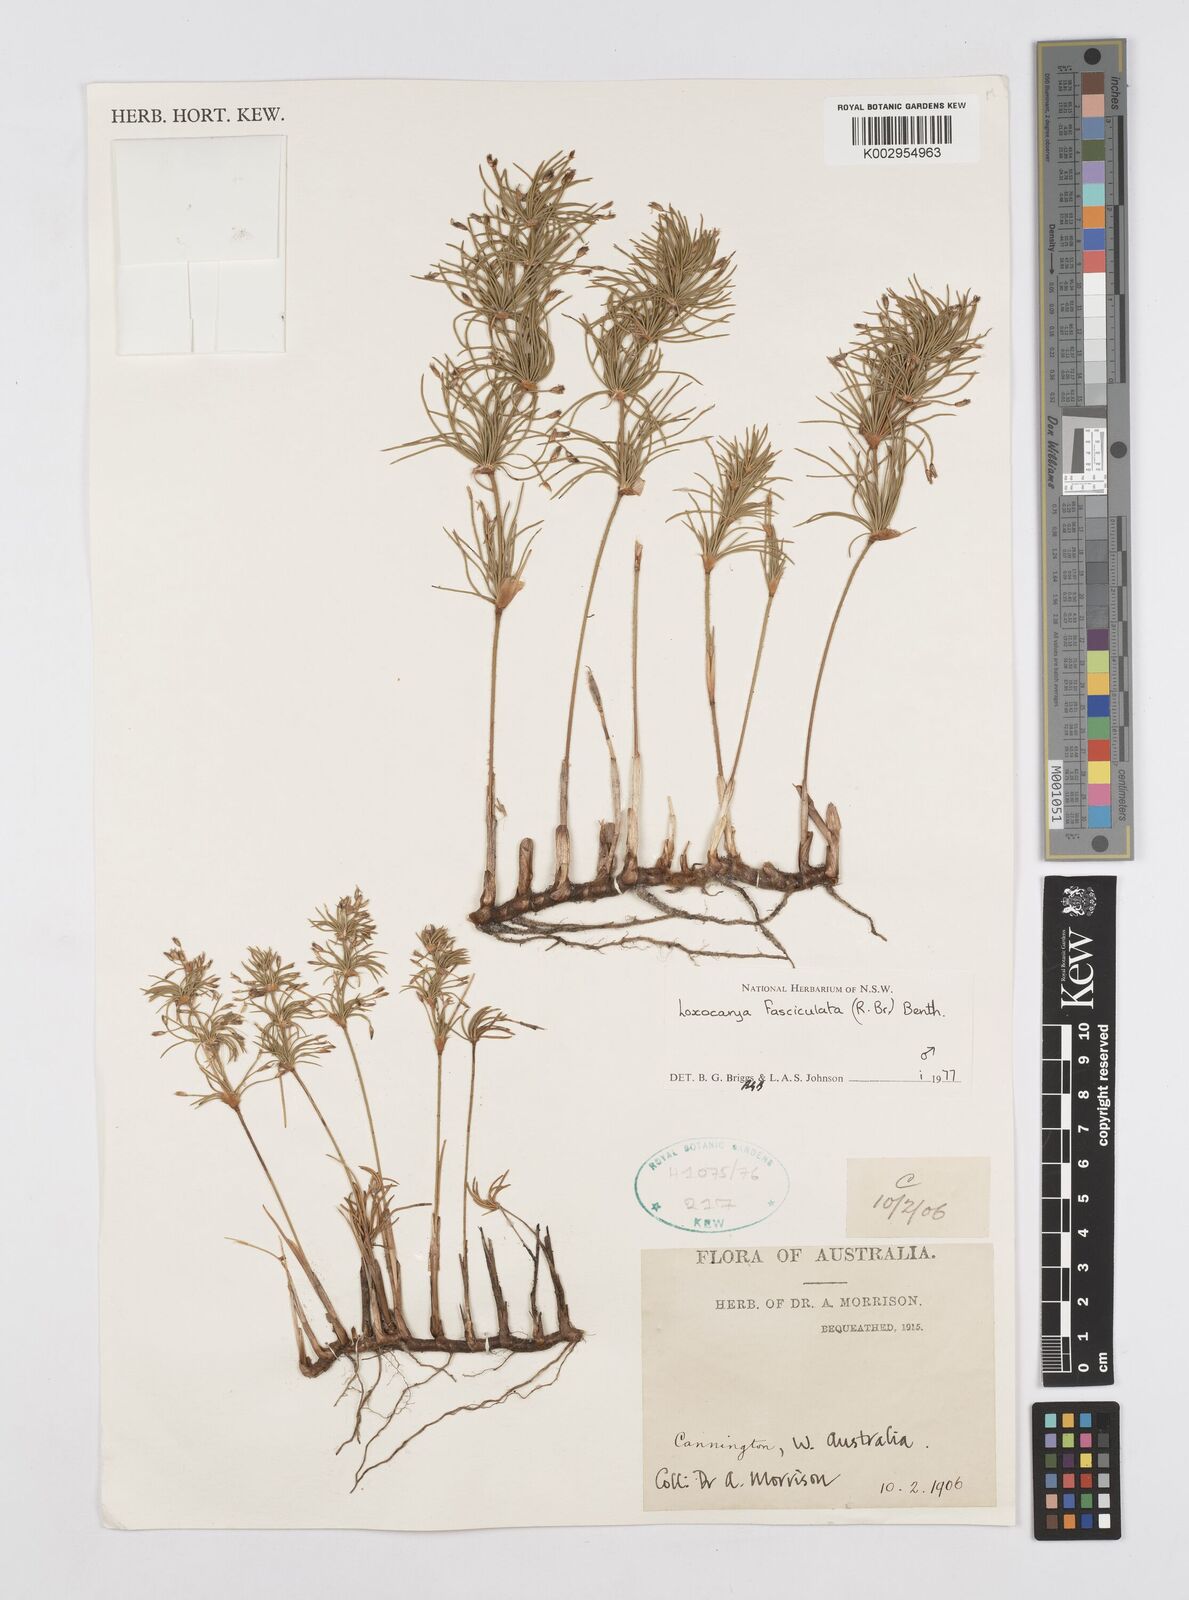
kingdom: Plantae
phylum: Tracheophyta
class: Liliopsida
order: Poales
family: Restionaceae
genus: Desmocladus
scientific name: Desmocladus fasciculatus
